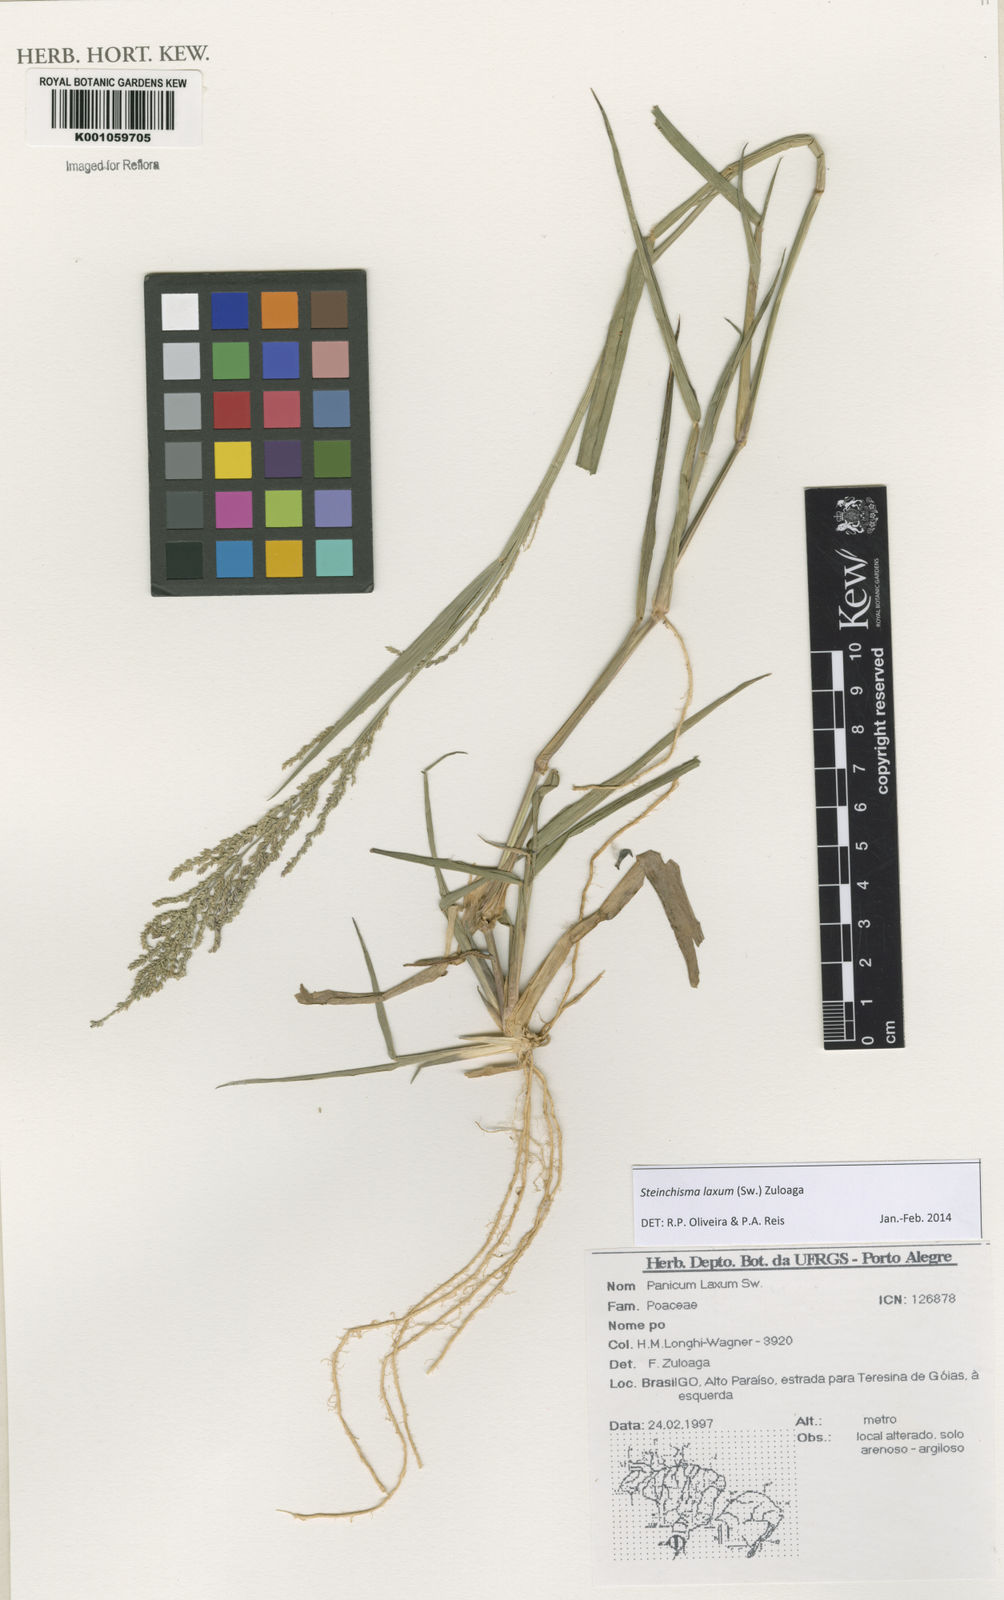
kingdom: Plantae
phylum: Tracheophyta
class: Liliopsida
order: Poales
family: Poaceae
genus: Steinchisma
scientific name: Steinchisma laxum
